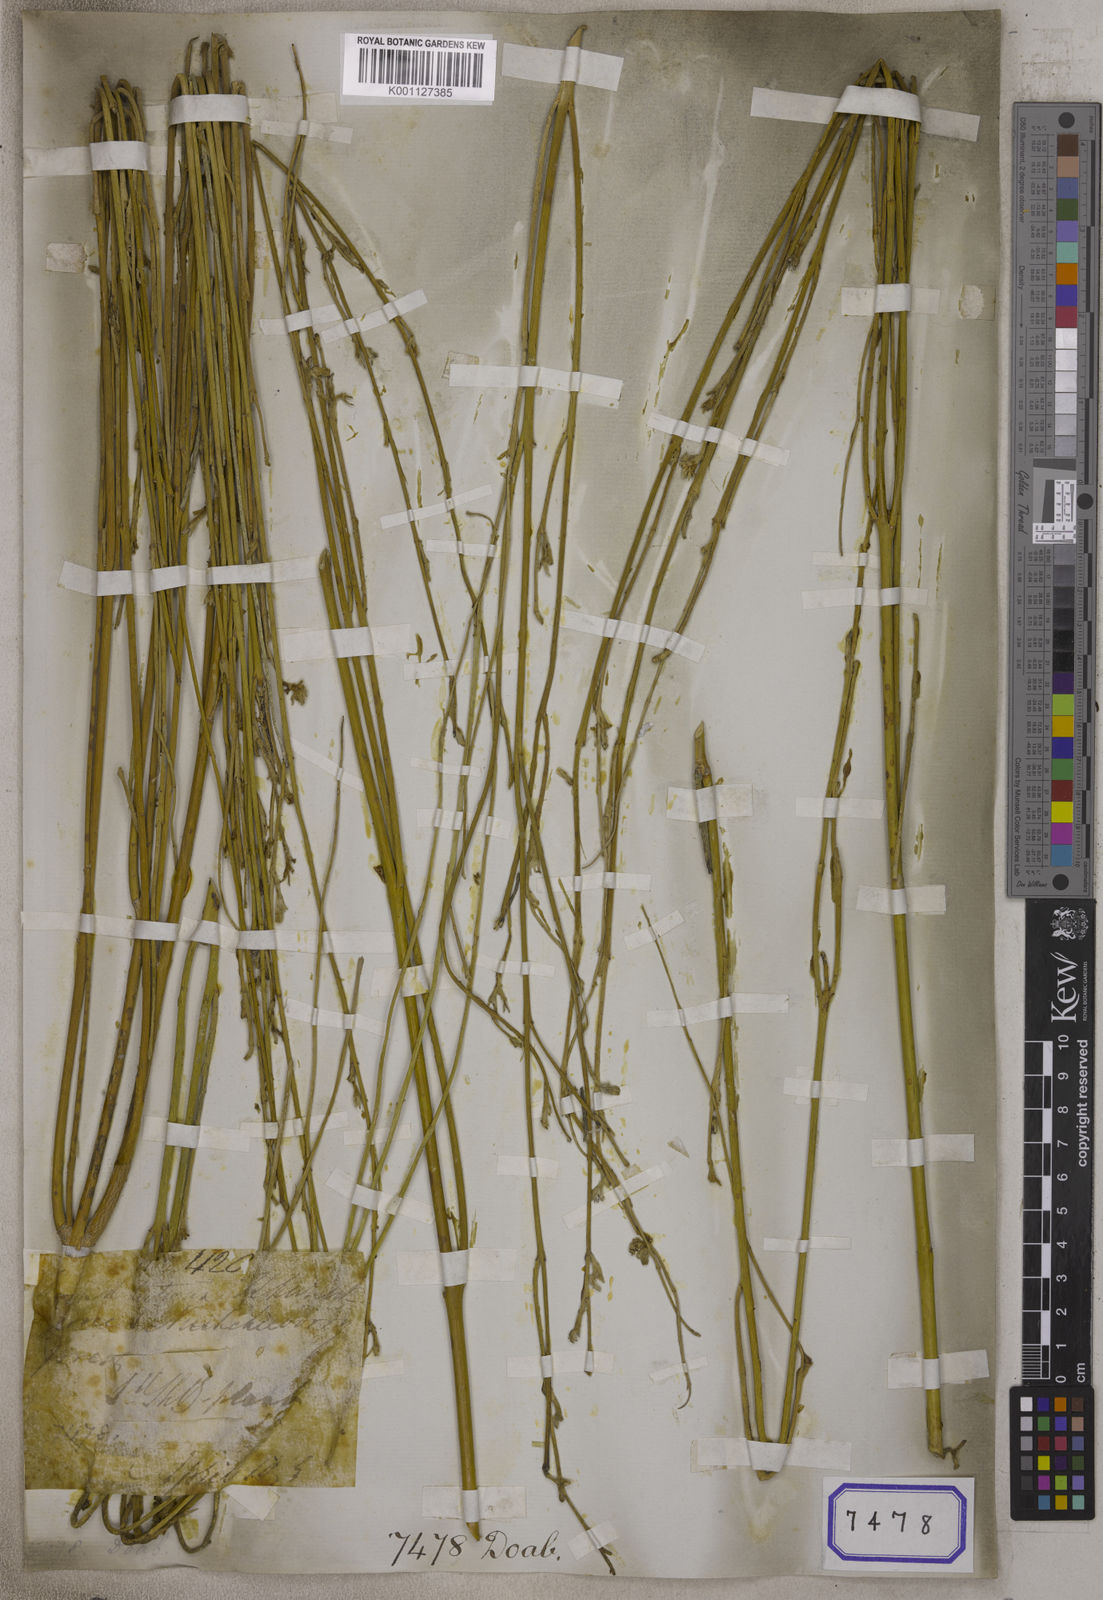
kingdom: Plantae
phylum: Tracheophyta
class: Magnoliopsida
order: Gentianales
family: Apocynaceae
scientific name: Apocynaceae
